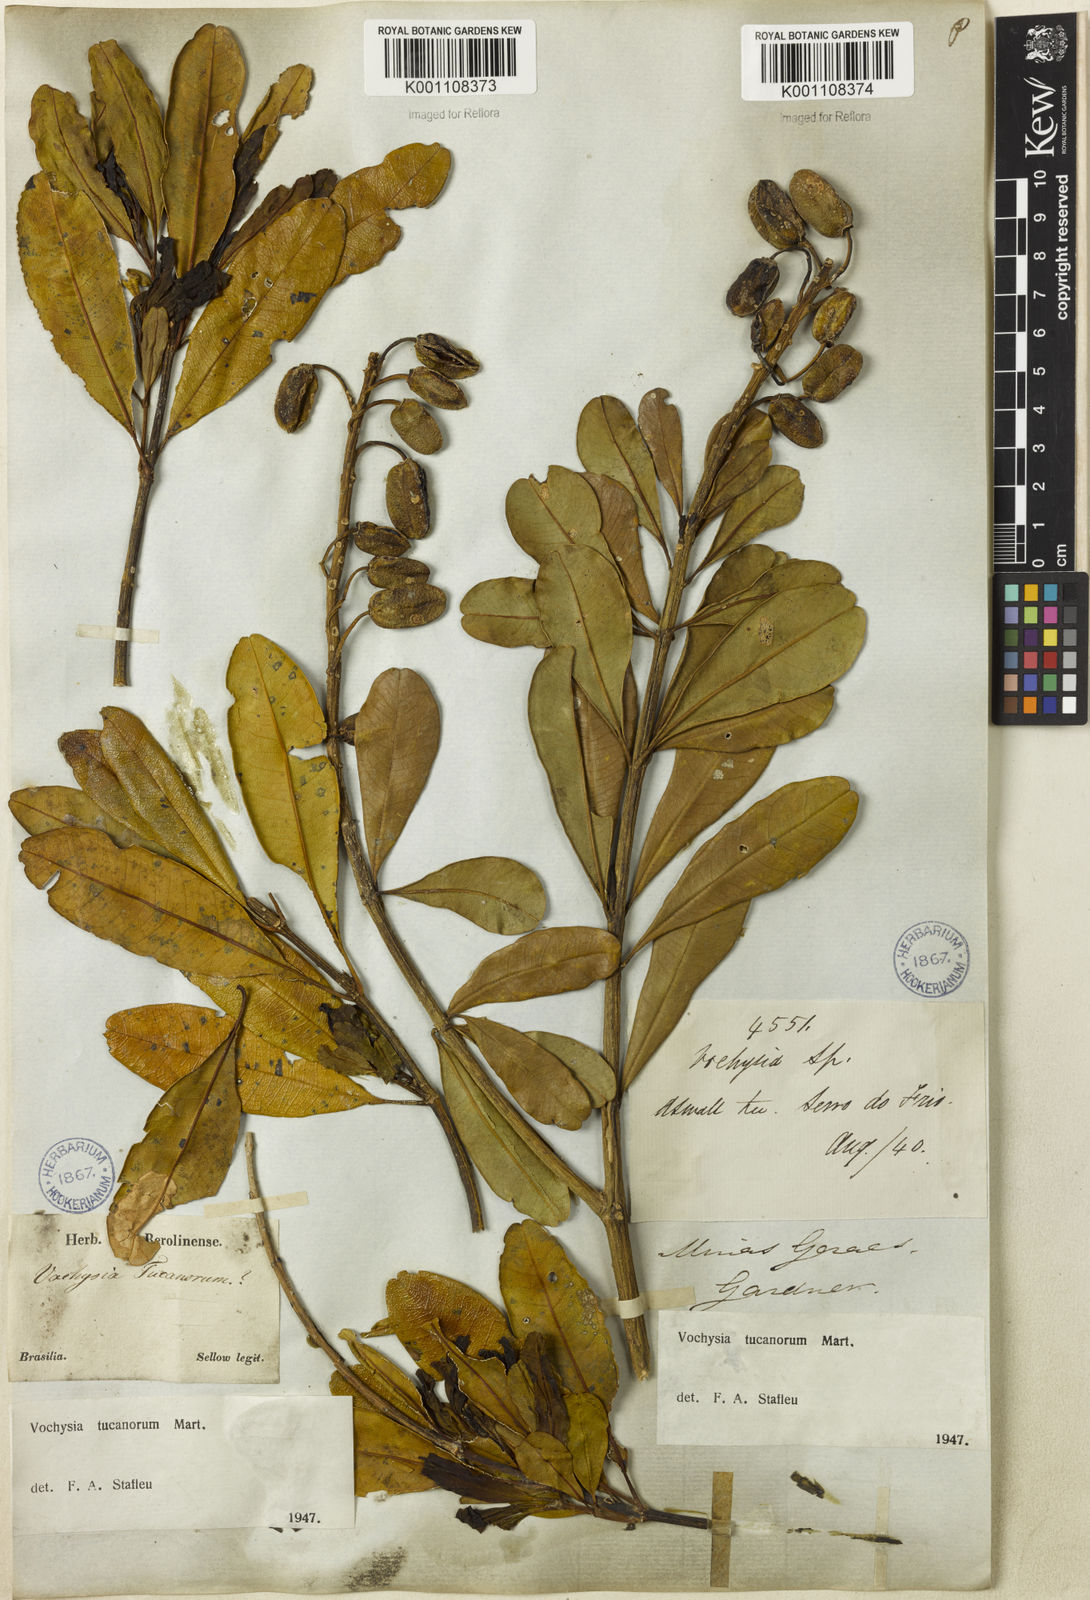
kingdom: Plantae
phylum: Tracheophyta
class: Magnoliopsida
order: Myrtales
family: Vochysiaceae
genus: Vochysia
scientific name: Vochysia tucanorum
